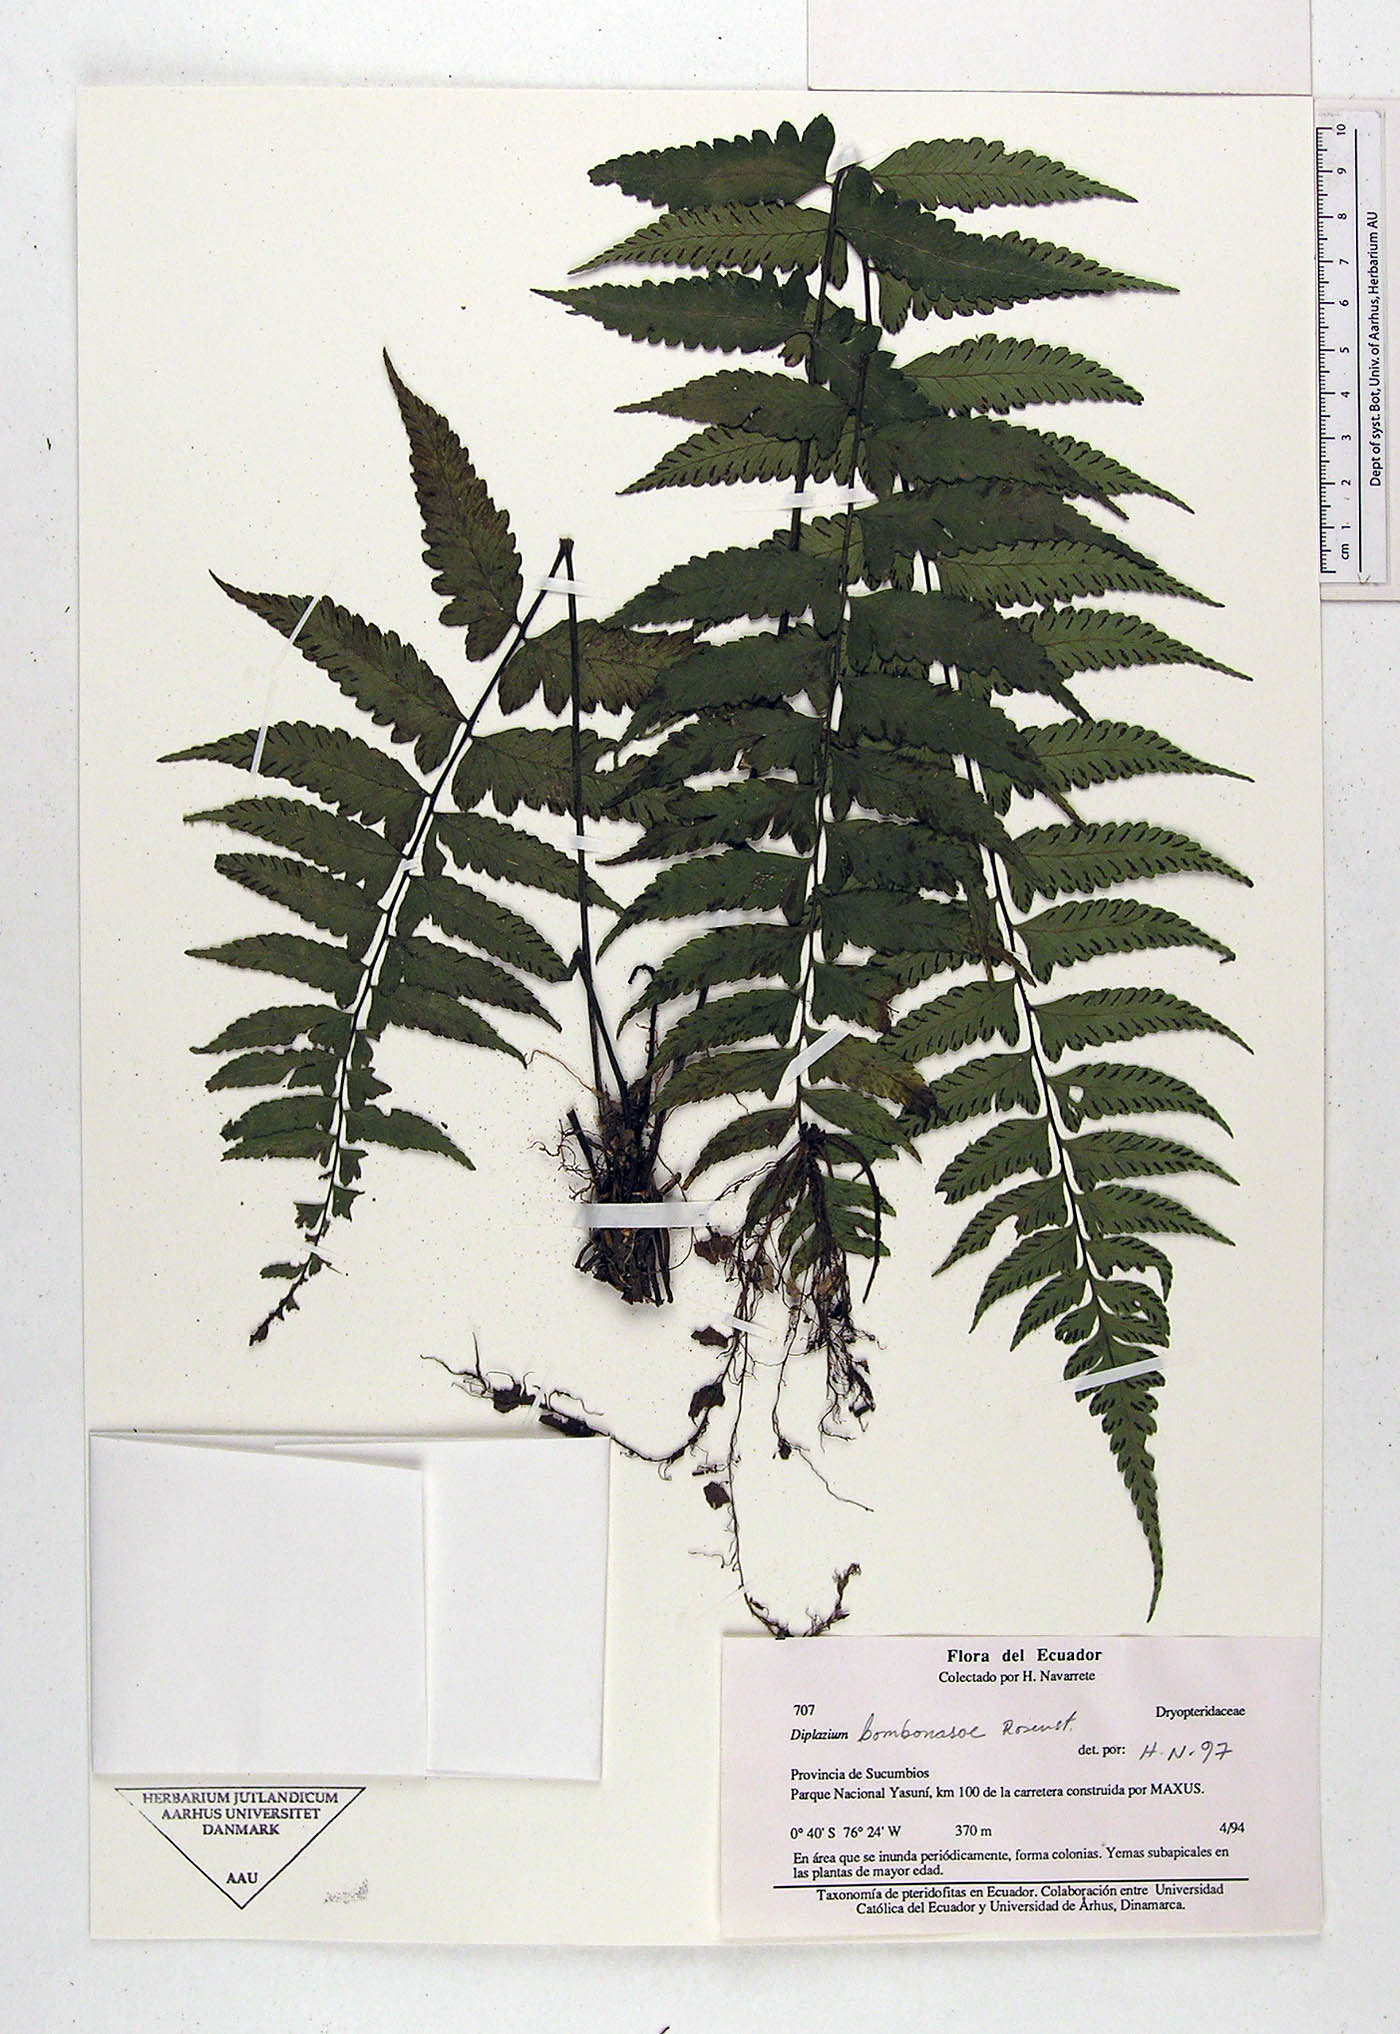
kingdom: Plantae
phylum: Tracheophyta
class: Polypodiopsida
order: Polypodiales
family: Athyriaceae
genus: Diplazium
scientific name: Diplazium bombonasae
